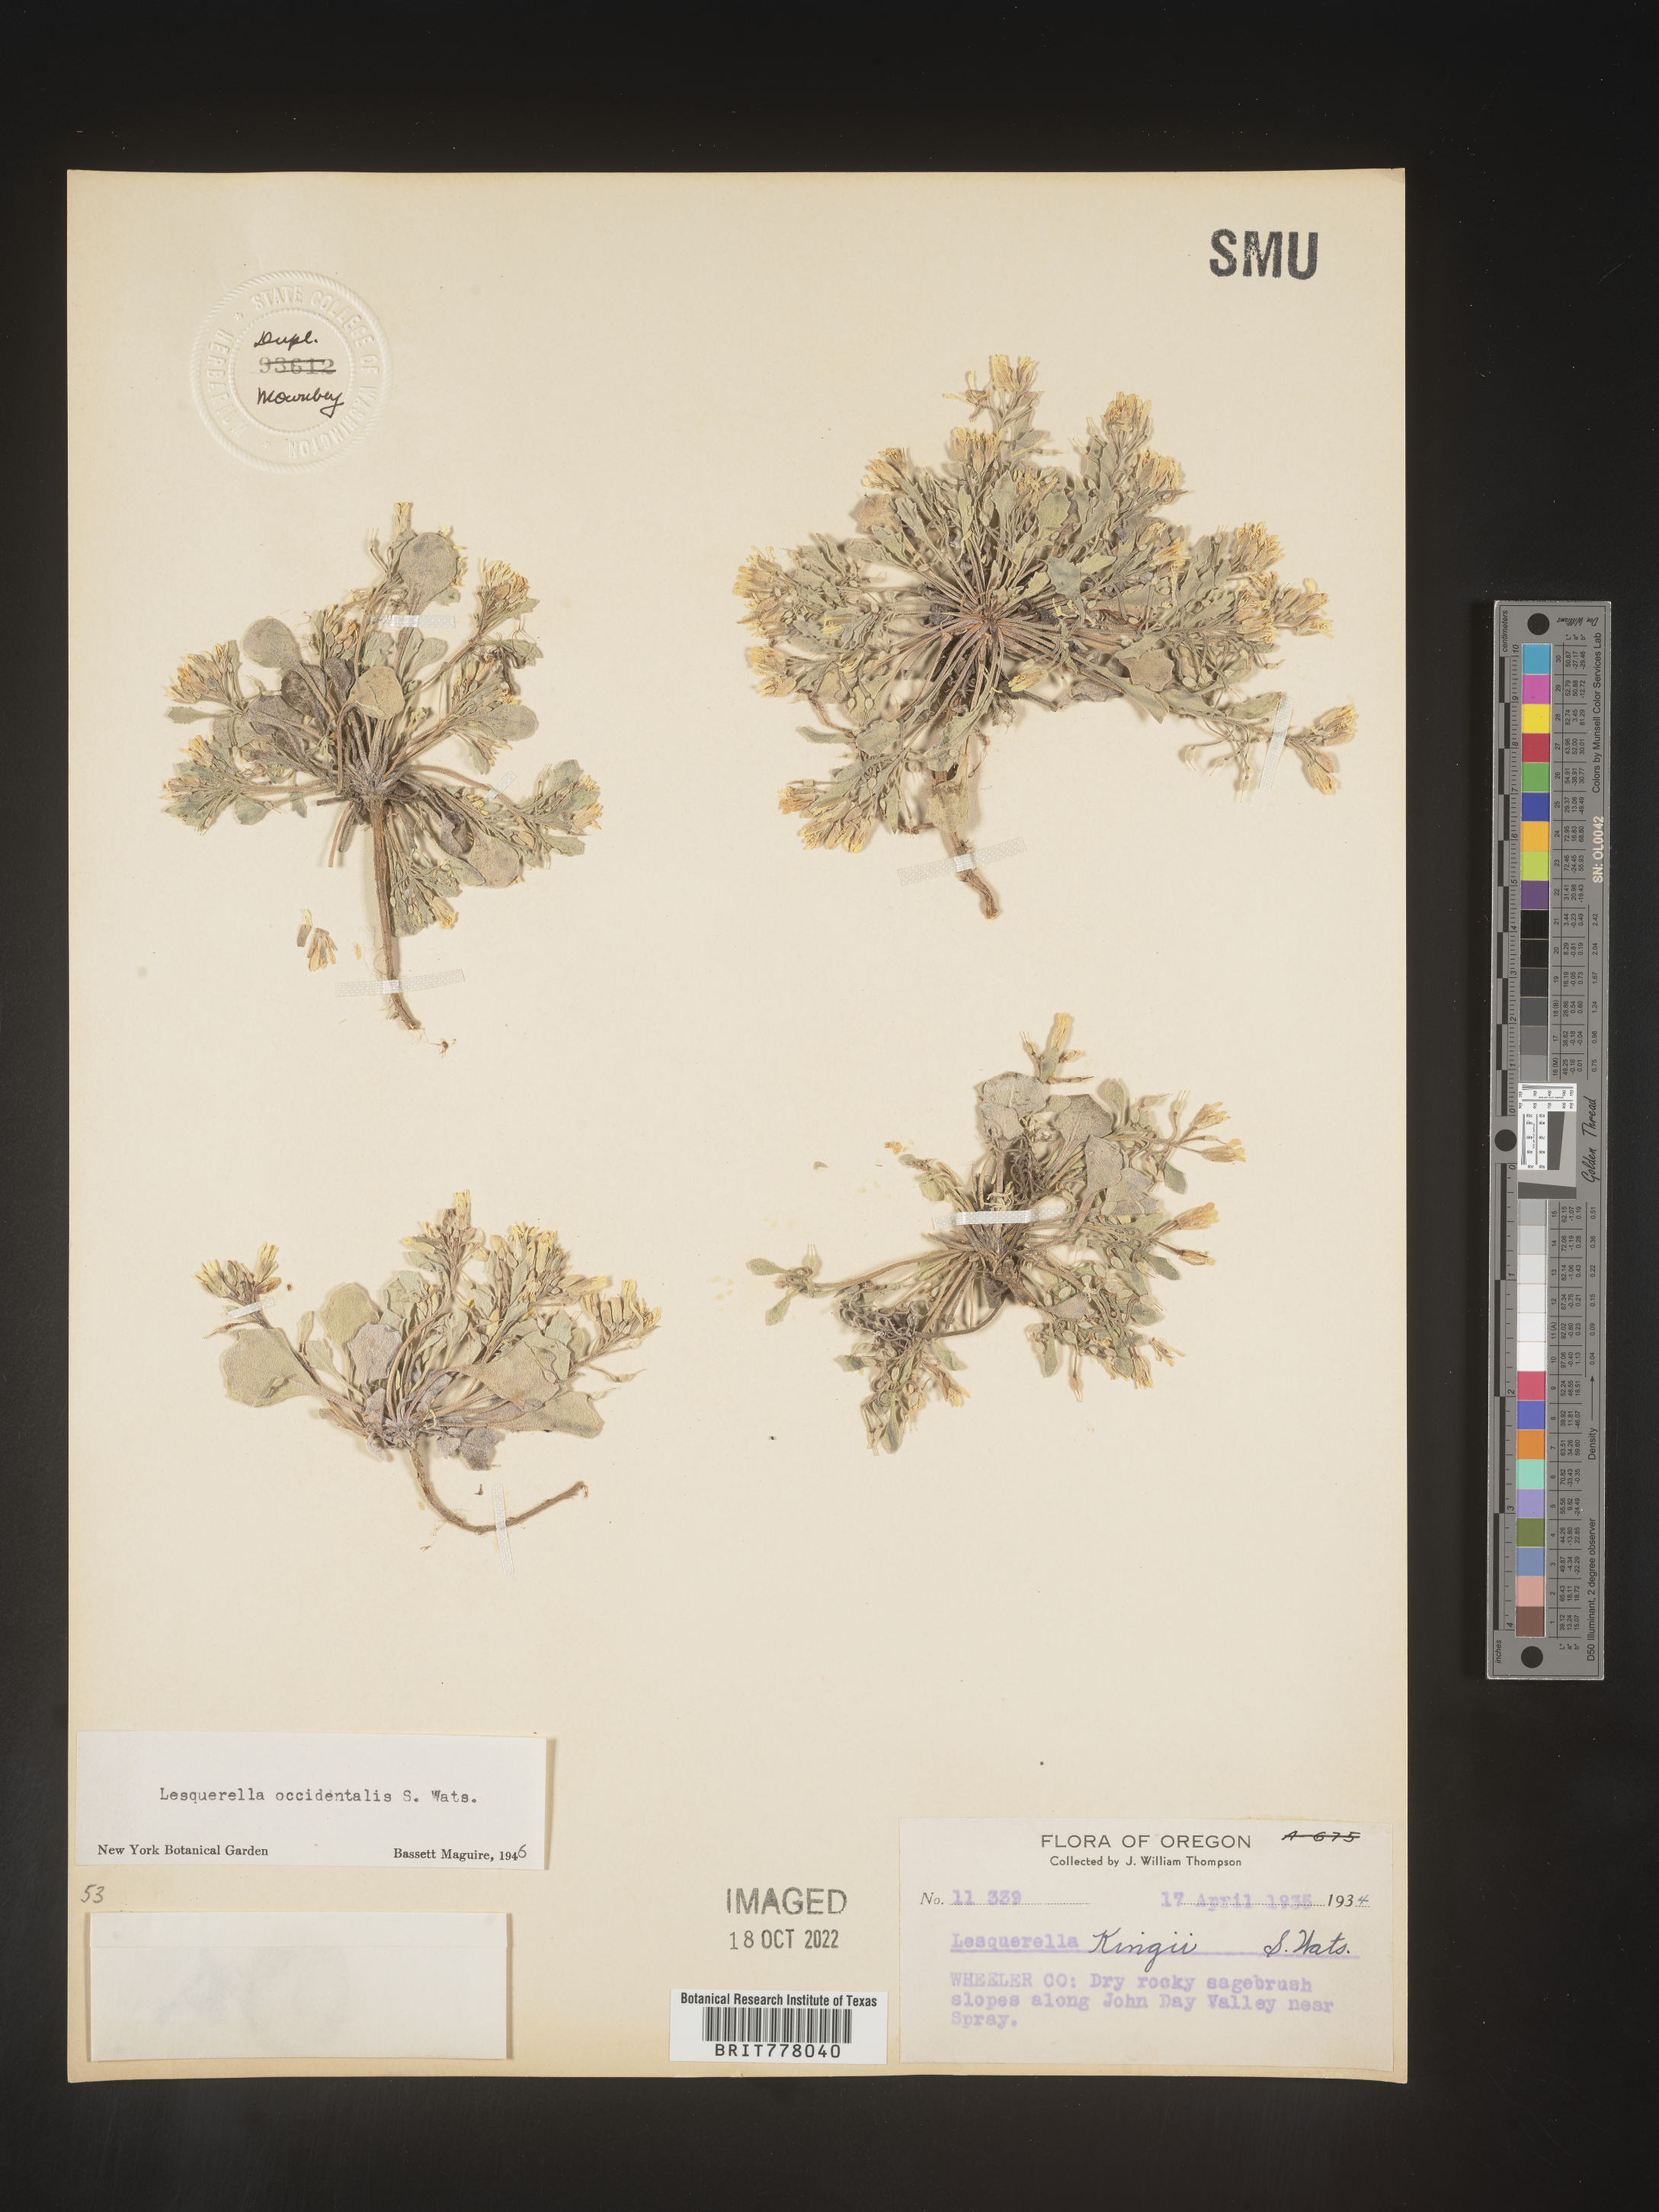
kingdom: Chromista
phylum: Cercozoa
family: Psammonobiotidae
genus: Lesquerella
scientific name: Lesquerella
